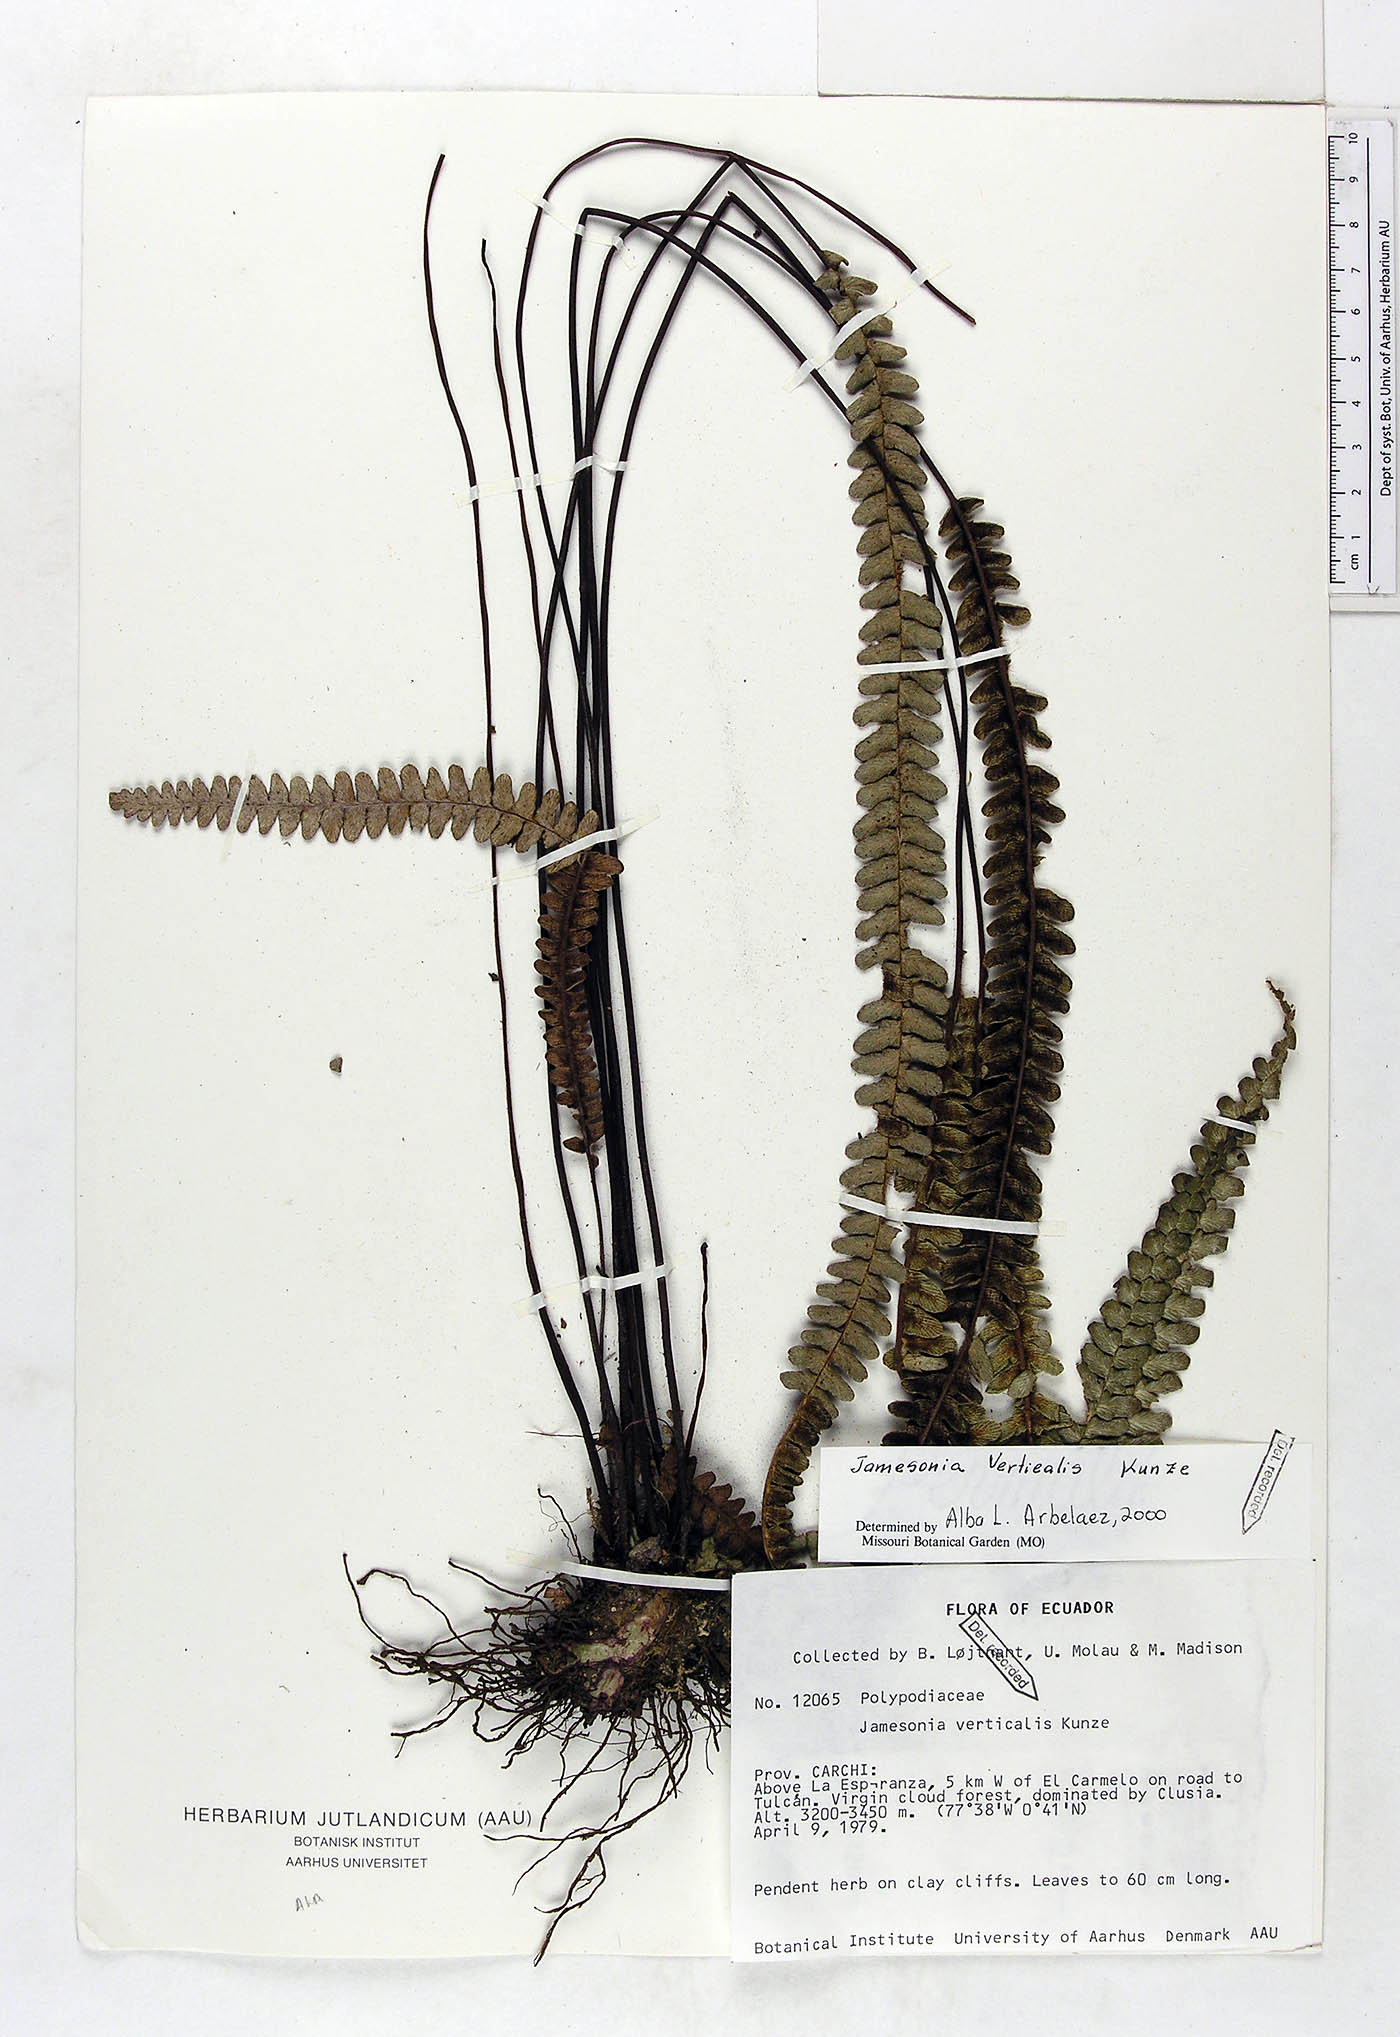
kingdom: Plantae
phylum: Tracheophyta
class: Polypodiopsida
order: Polypodiales
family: Pteridaceae
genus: Jamesonia
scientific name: Jamesonia verticalis
